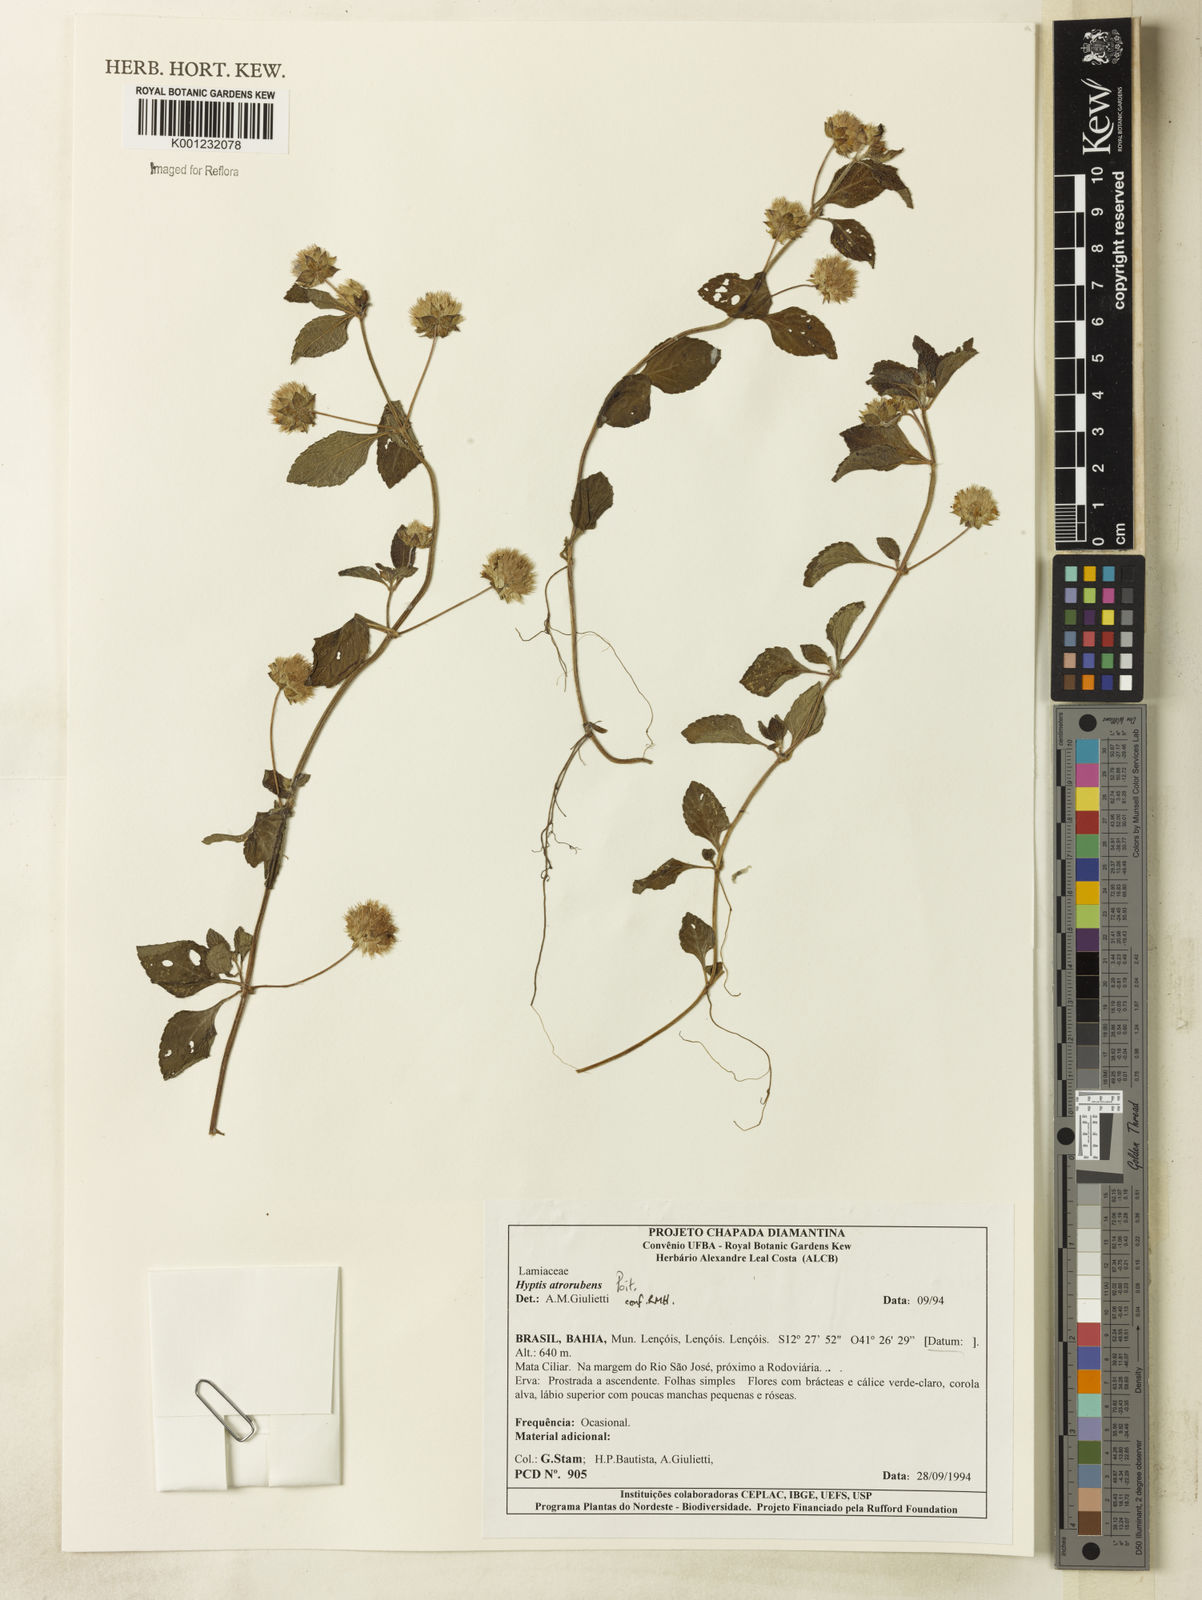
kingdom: Plantae
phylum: Tracheophyta
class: Magnoliopsida
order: Lamiales
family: Lamiaceae
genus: Hyptis
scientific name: Hyptis atrorubens
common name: Lanmant
